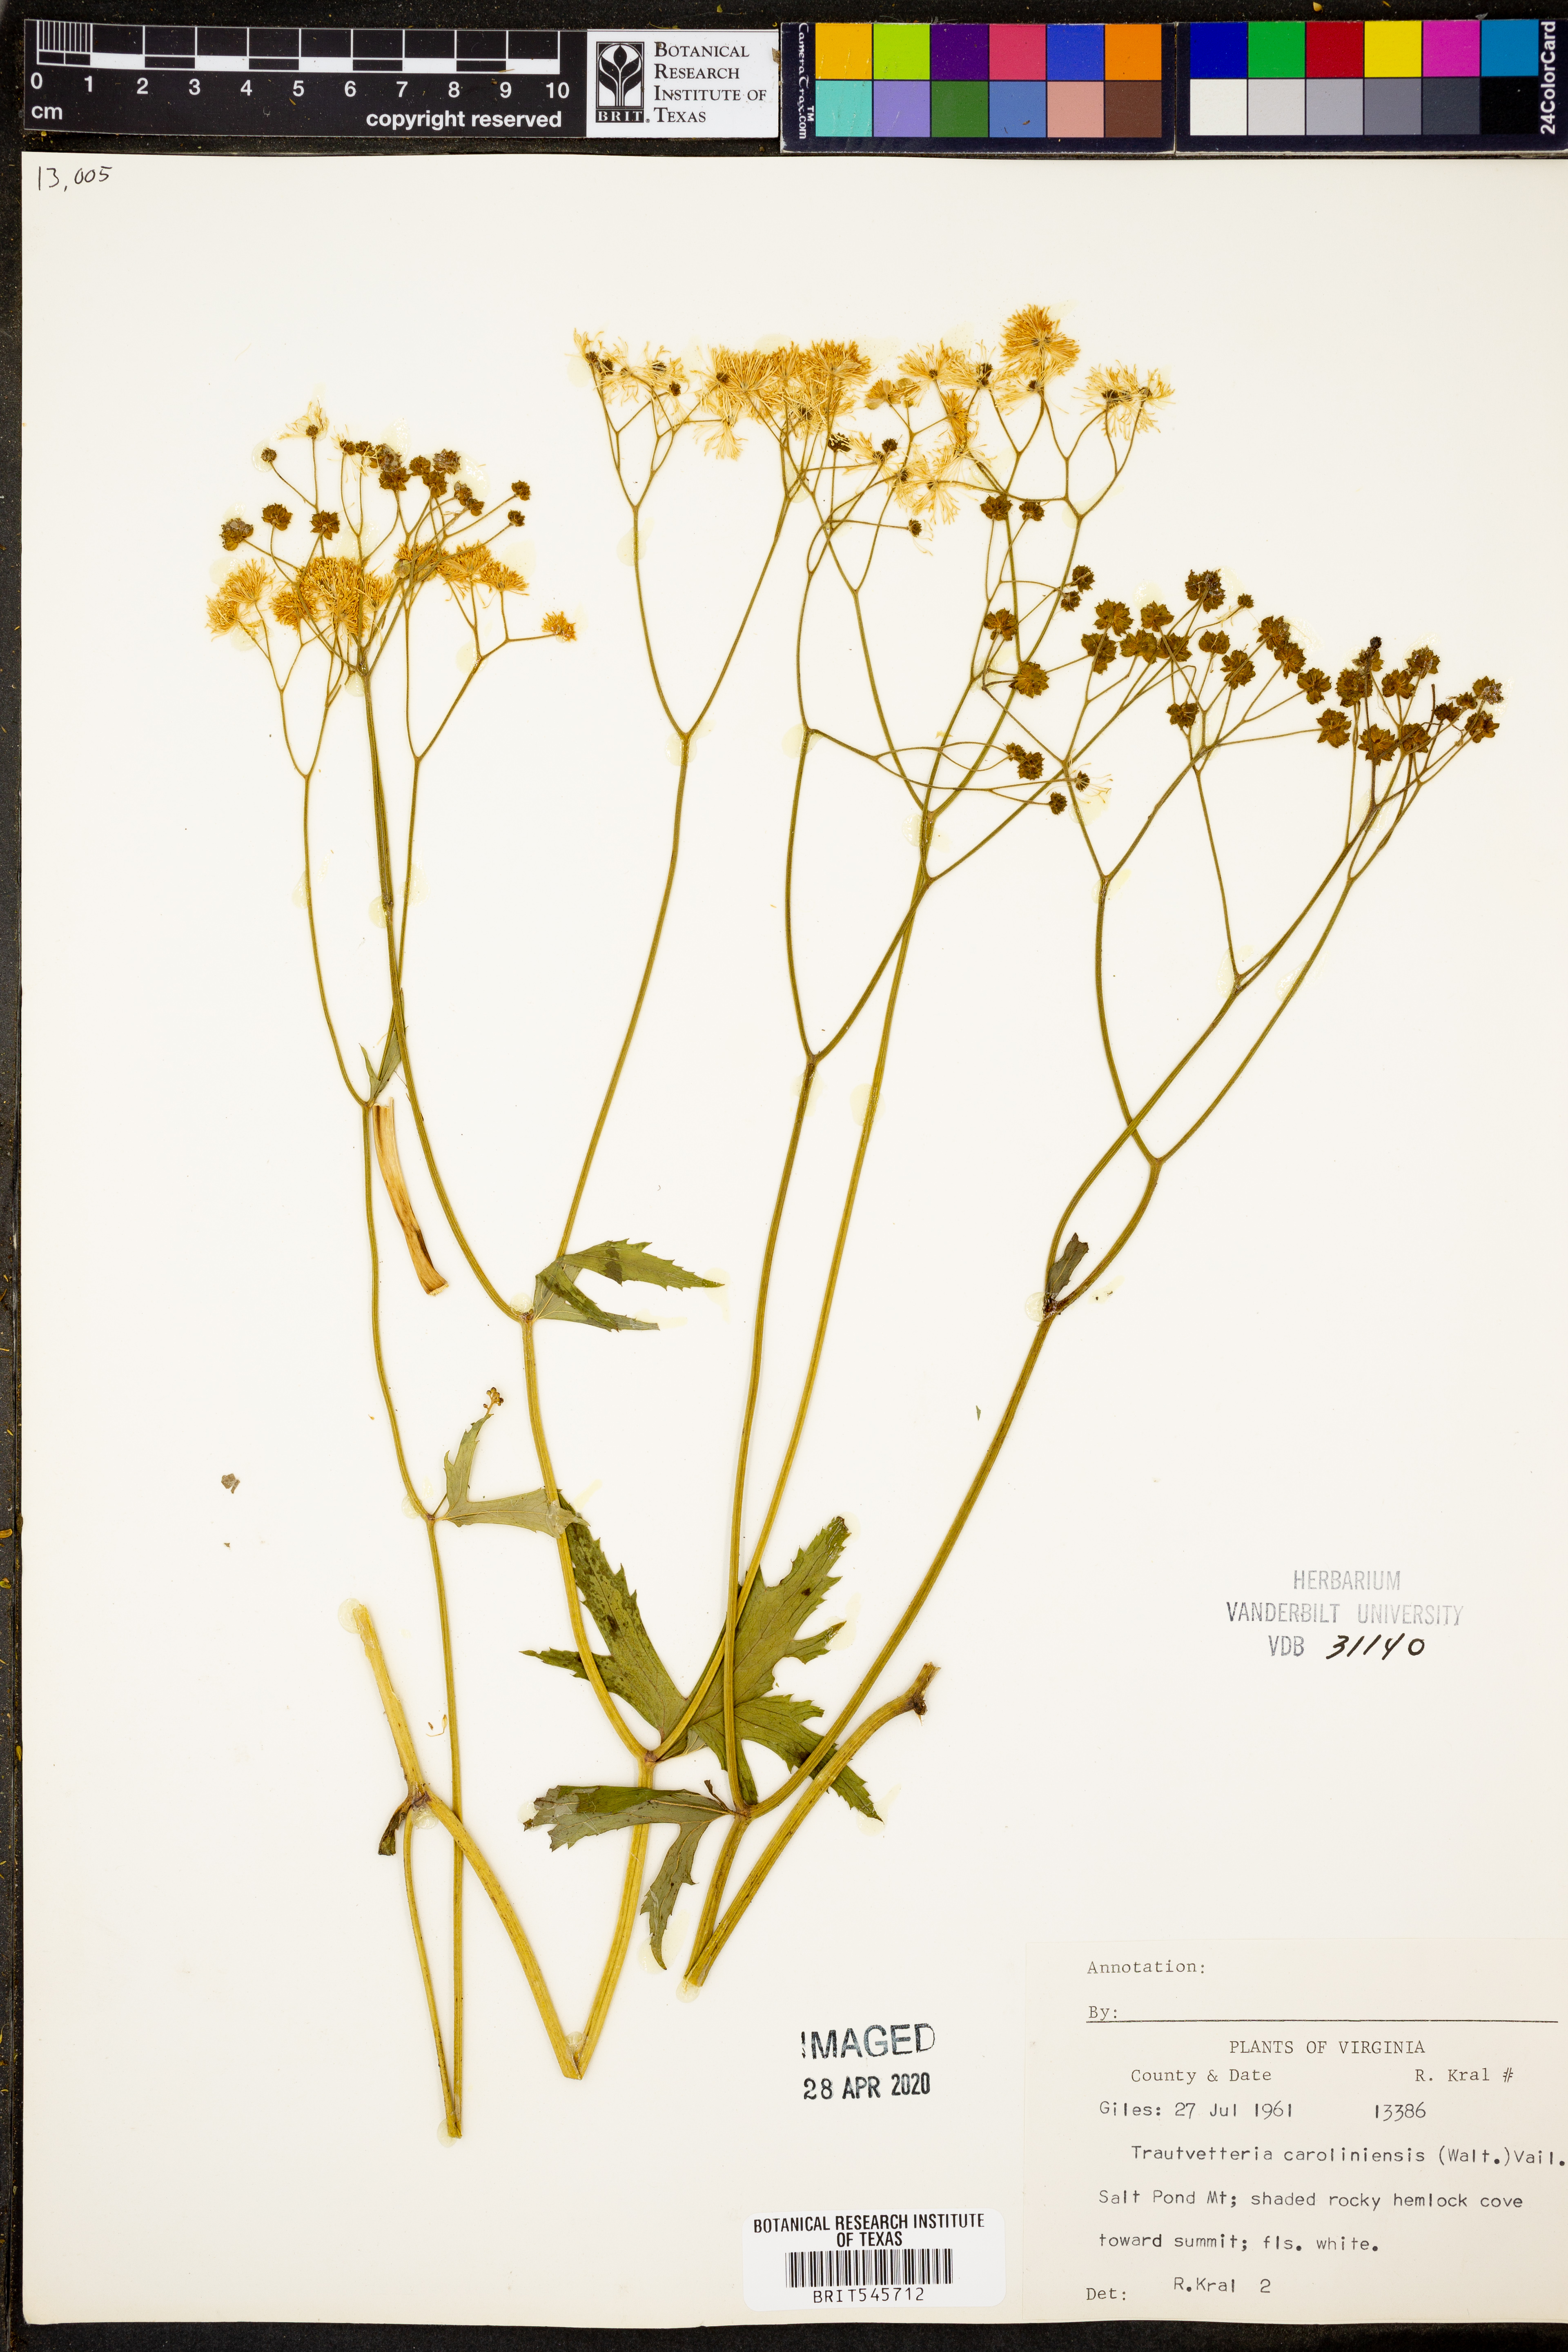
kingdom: Plantae
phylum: Tracheophyta
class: Magnoliopsida
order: Ranunculales
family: Ranunculaceae
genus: Trautvetteria
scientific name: Trautvetteria carolinensis
